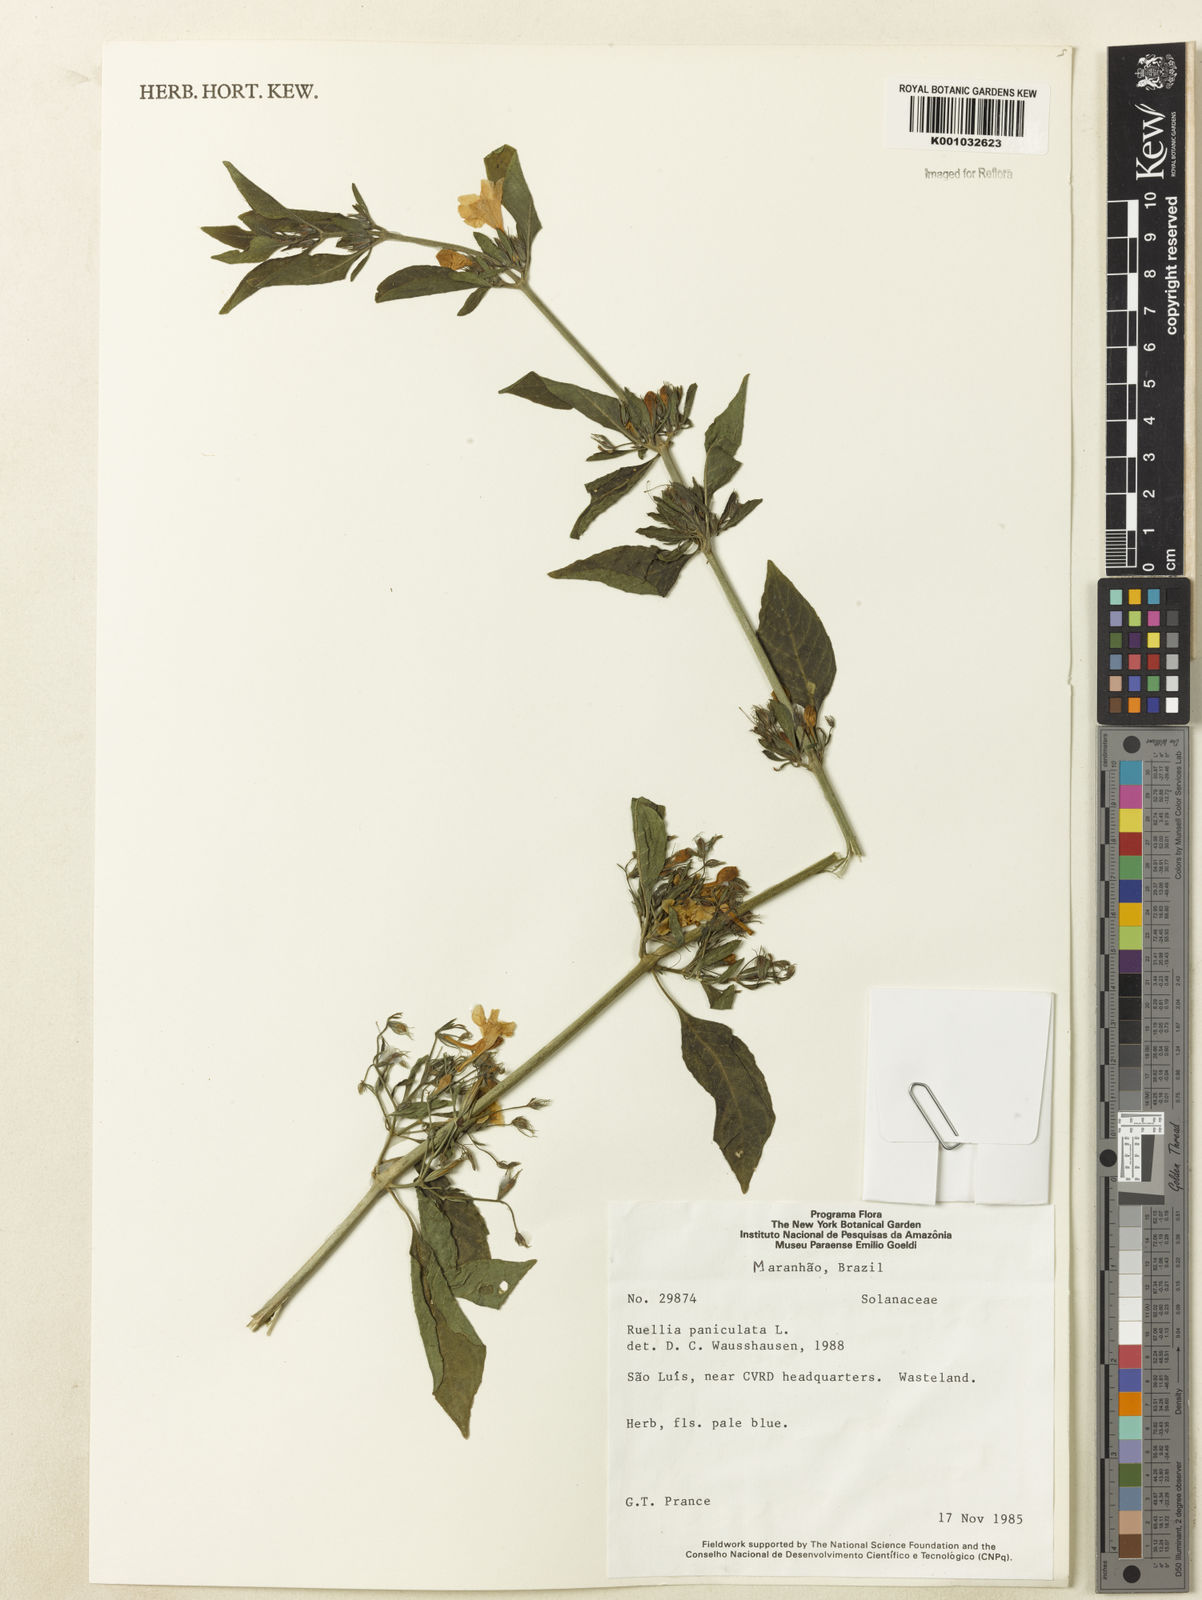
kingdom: Plantae
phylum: Tracheophyta
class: Magnoliopsida
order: Lamiales
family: Acanthaceae
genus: Ruellia
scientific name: Ruellia paniculata
